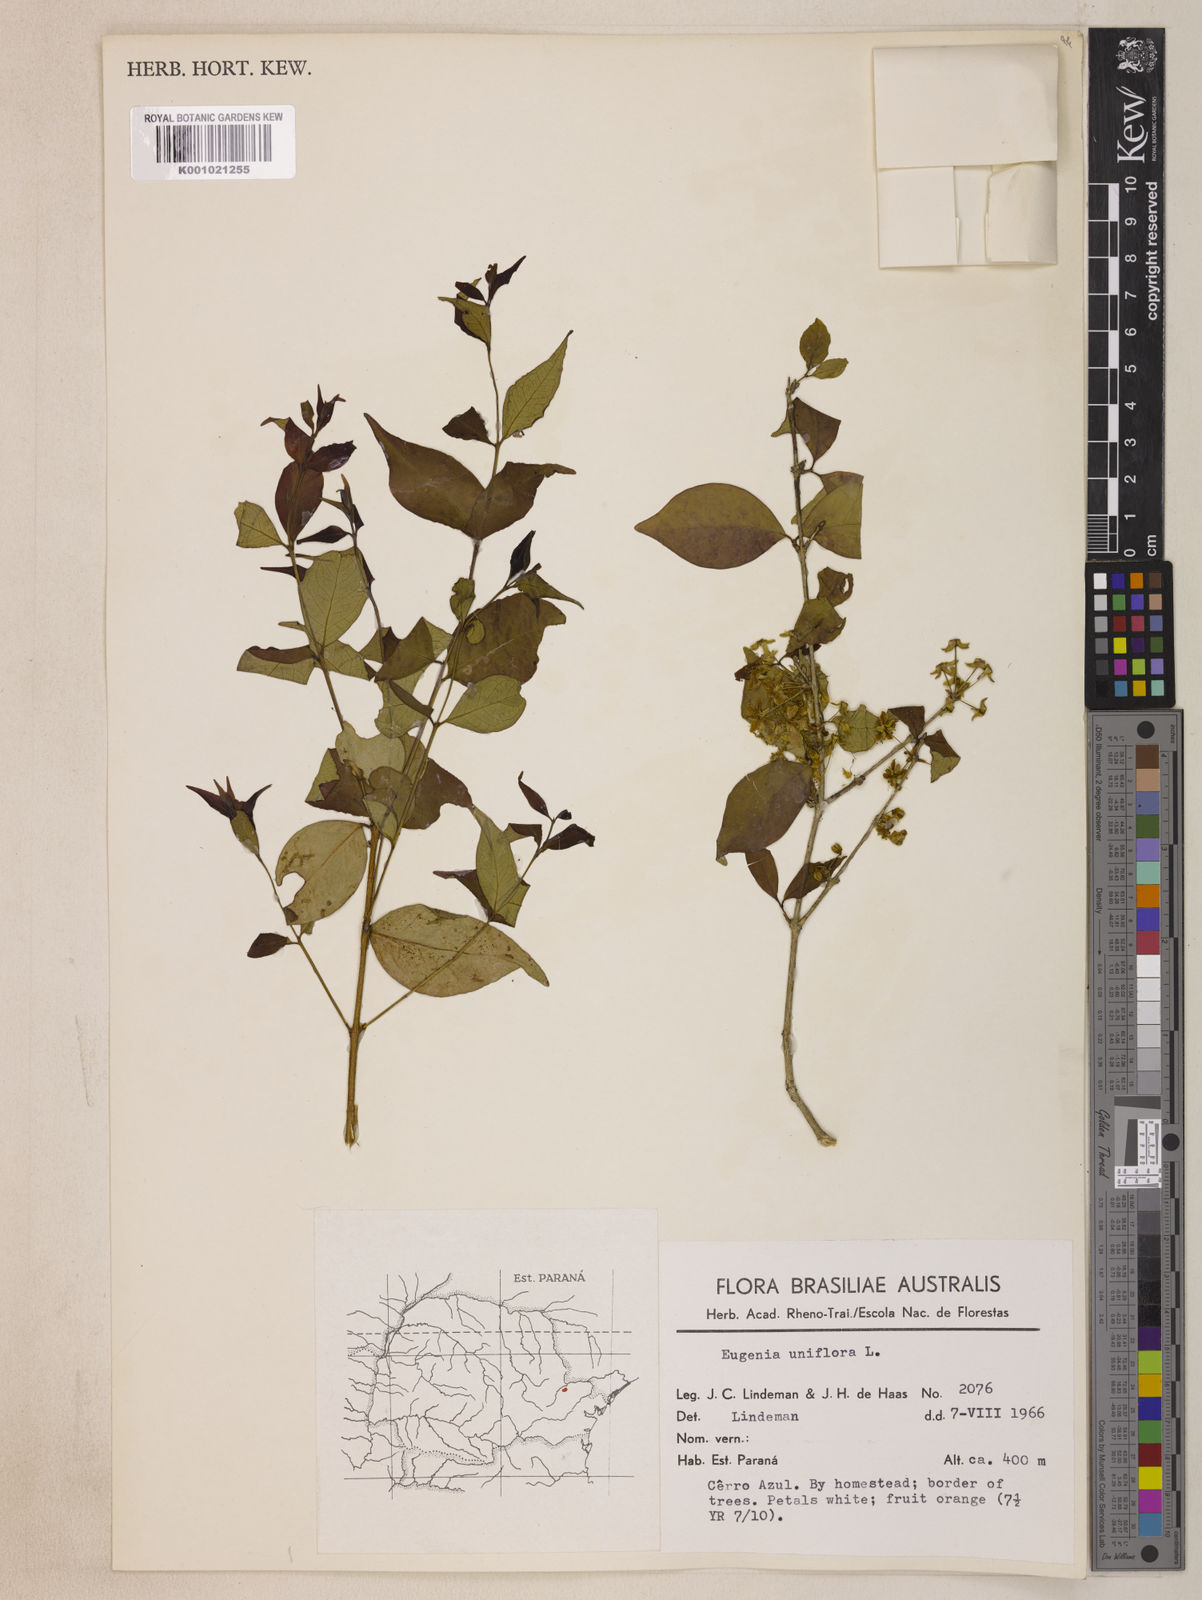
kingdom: Plantae
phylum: Tracheophyta
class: Magnoliopsida
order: Myrtales
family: Myrtaceae
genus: Eugenia
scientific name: Eugenia uniflora
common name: Surinam cherry
